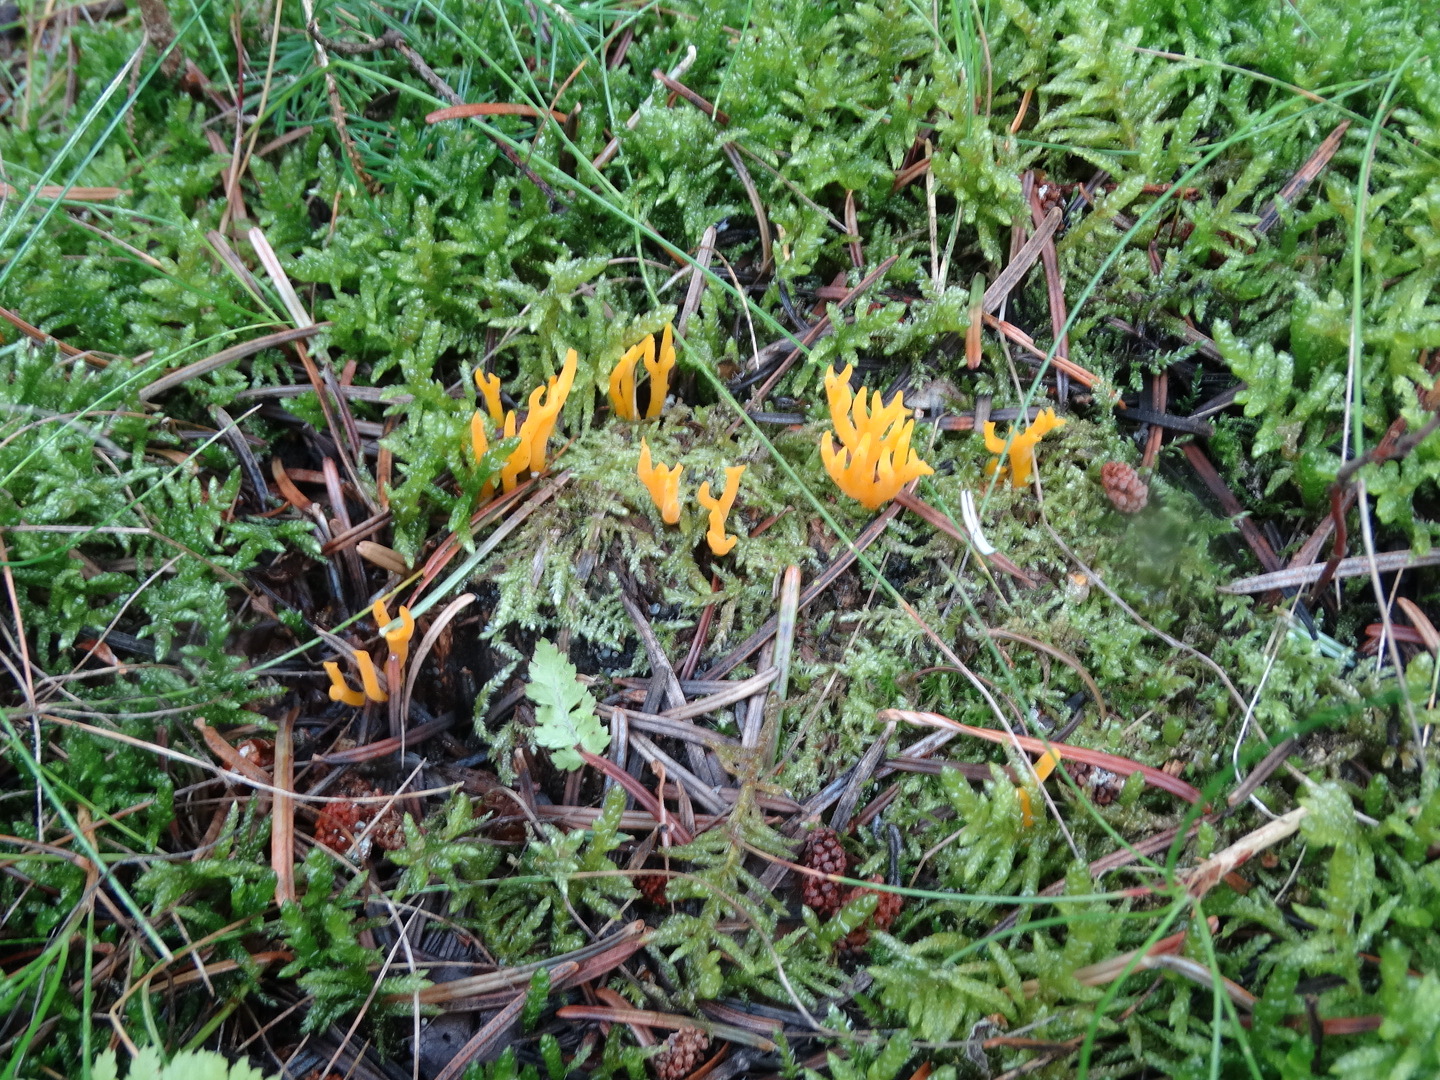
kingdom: Fungi
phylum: Basidiomycota
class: Dacrymycetes
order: Dacrymycetales
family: Dacrymycetaceae
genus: Calocera
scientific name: Calocera viscosa
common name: almindelig guldgaffel
